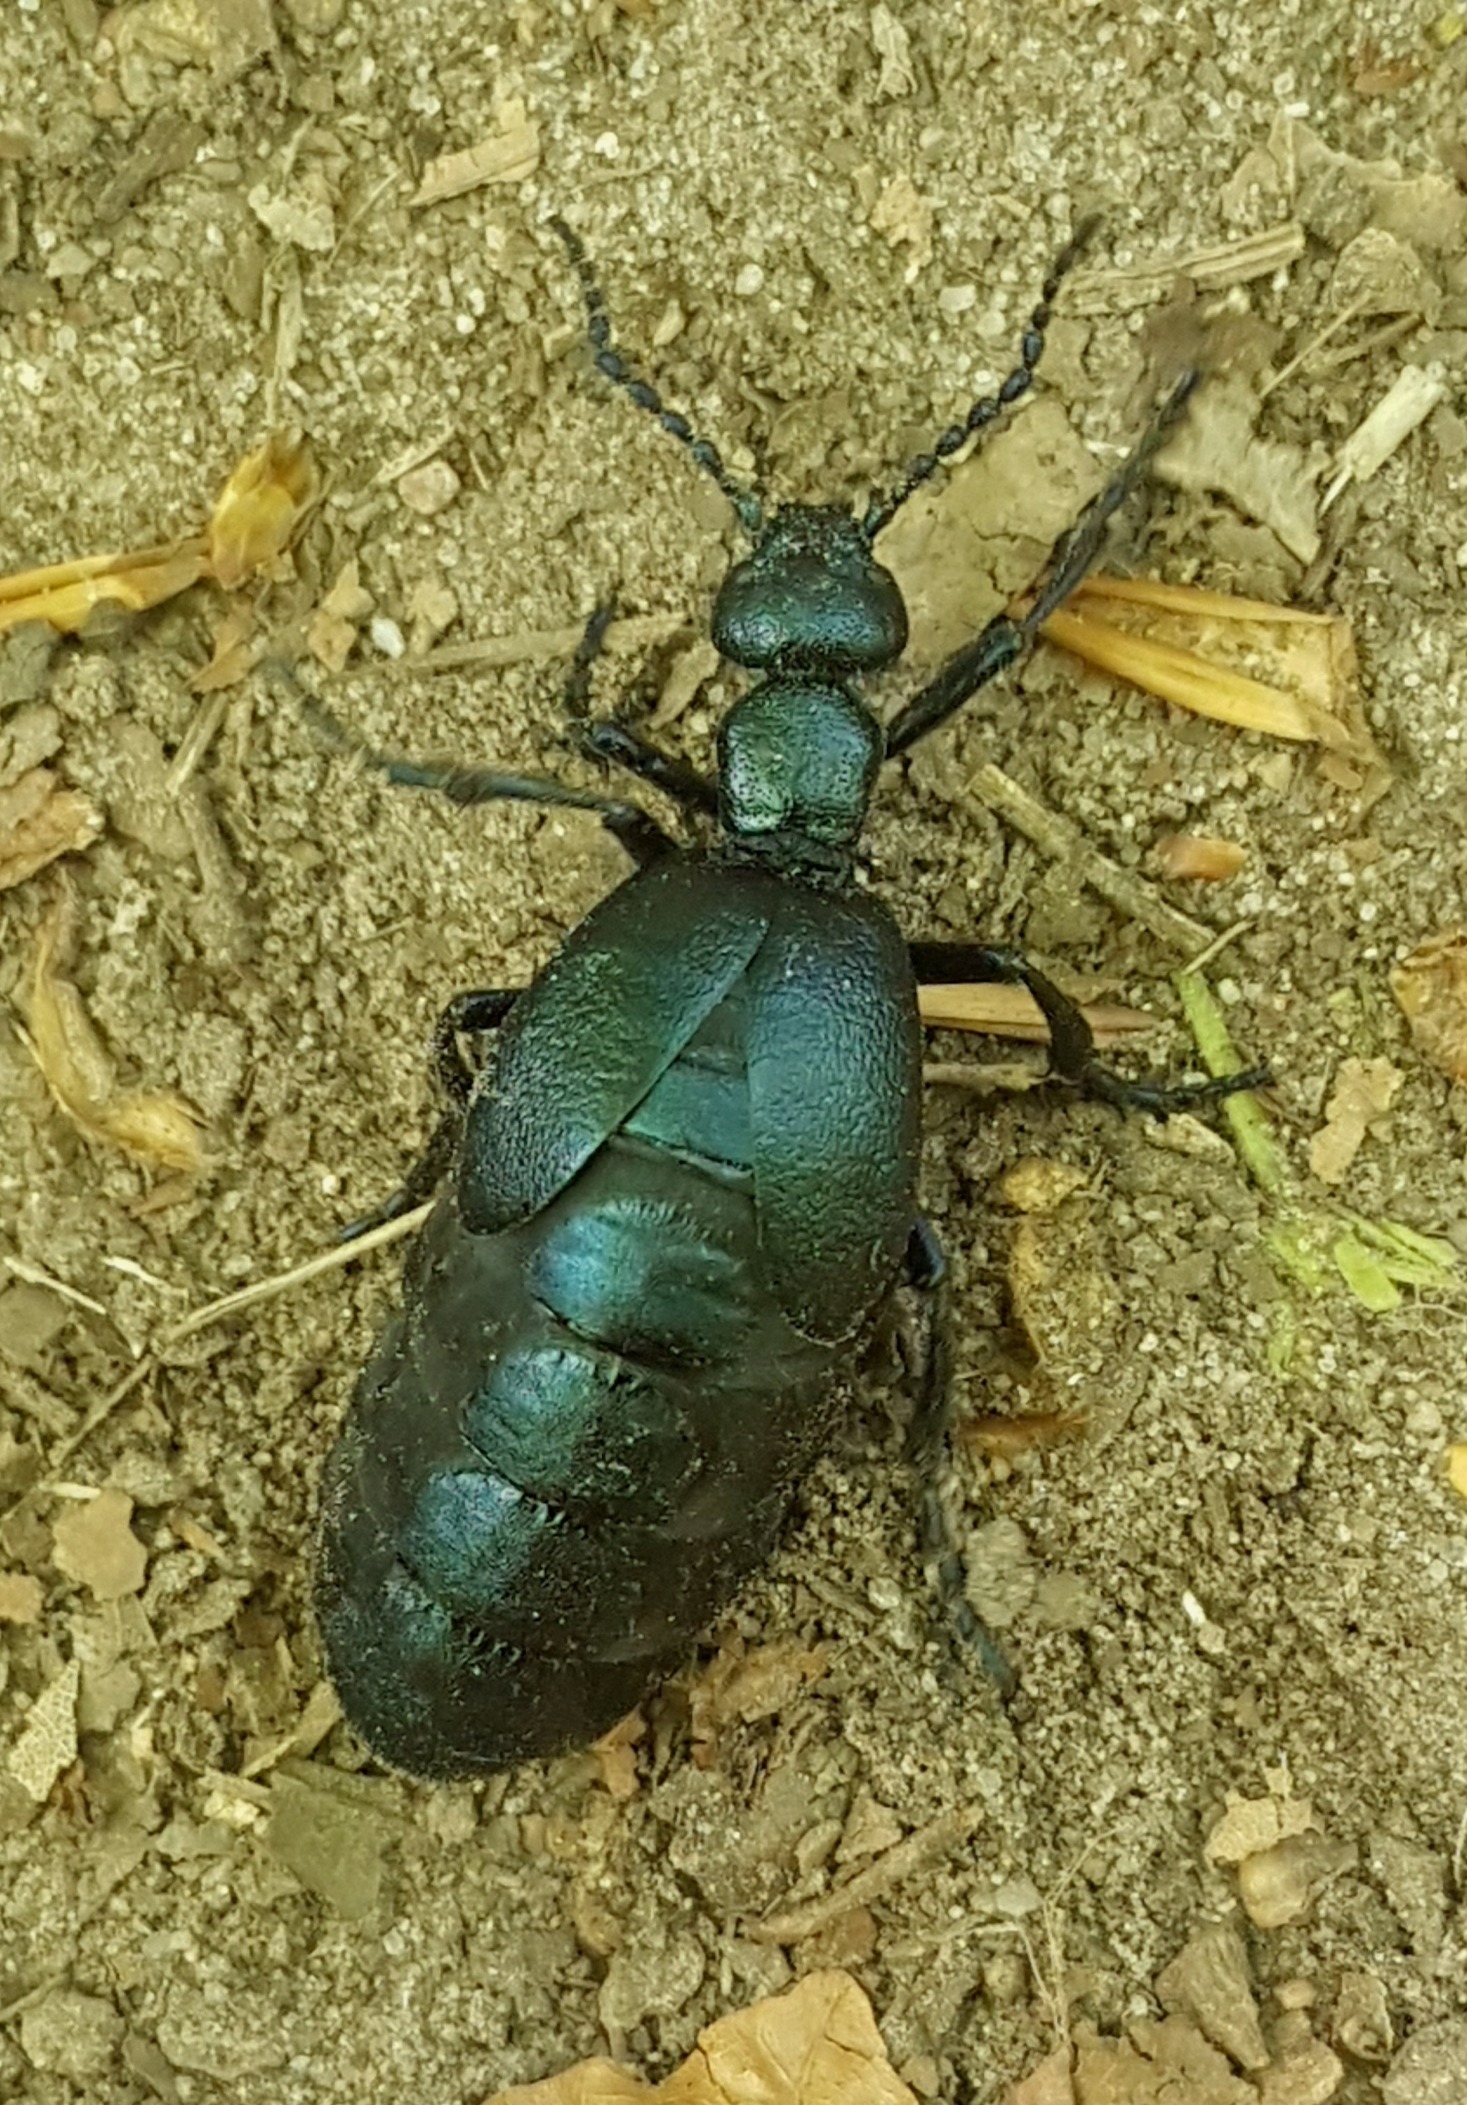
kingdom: Animalia
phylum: Arthropoda
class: Insecta
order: Coleoptera
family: Meloidae
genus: Meloe
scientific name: Meloe violaceus
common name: Blå oliebille
